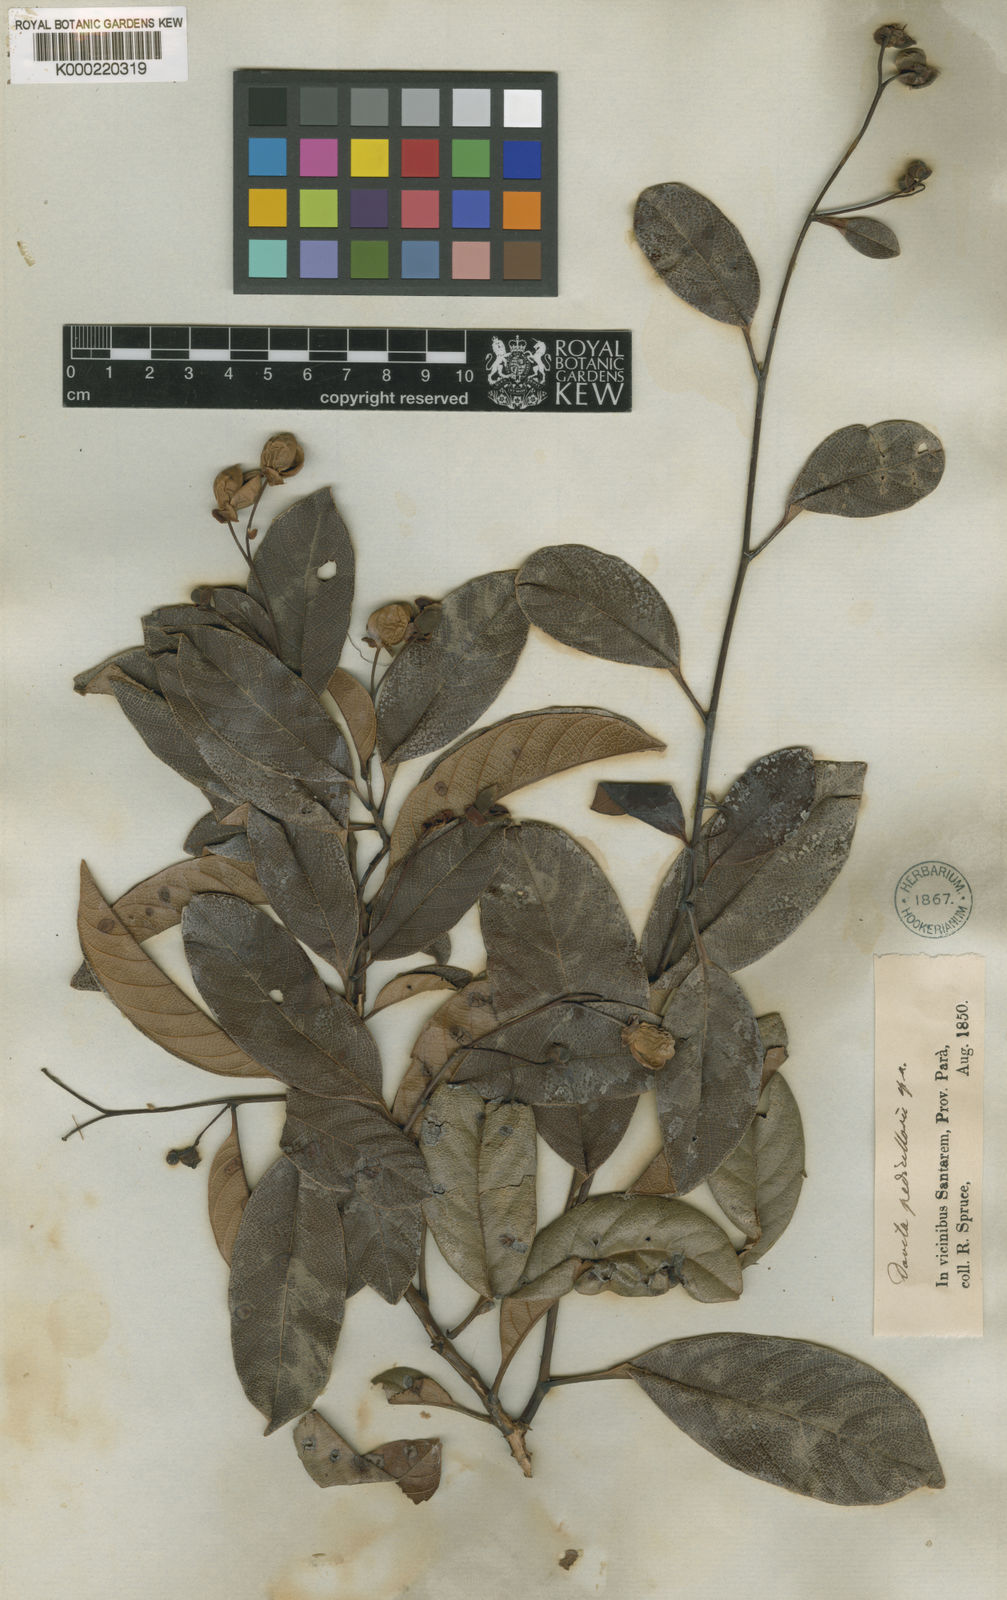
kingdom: Plantae
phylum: Tracheophyta
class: Magnoliopsida
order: Dilleniales
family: Dilleniaceae
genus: Davilla
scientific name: Davilla pedicellaris
